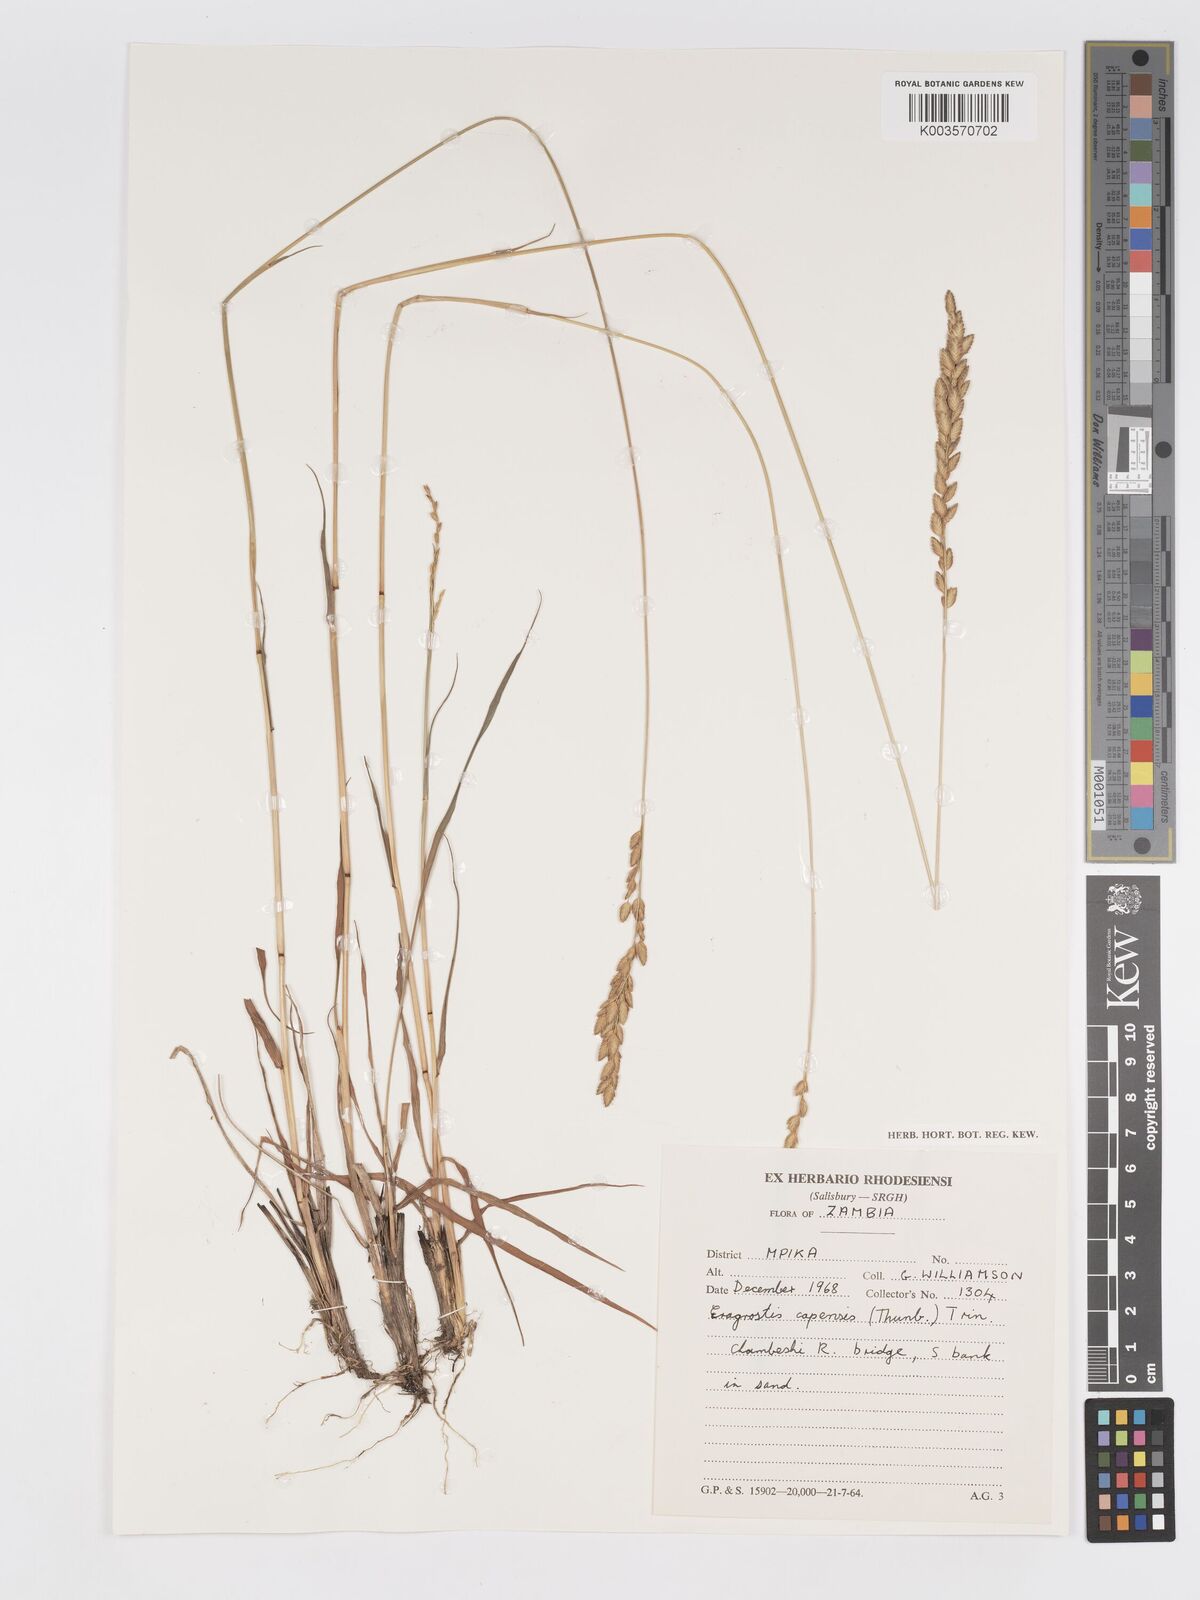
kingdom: Plantae
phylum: Tracheophyta
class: Liliopsida
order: Poales
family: Poaceae
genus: Eragrostis
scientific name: Eragrostis capensis
